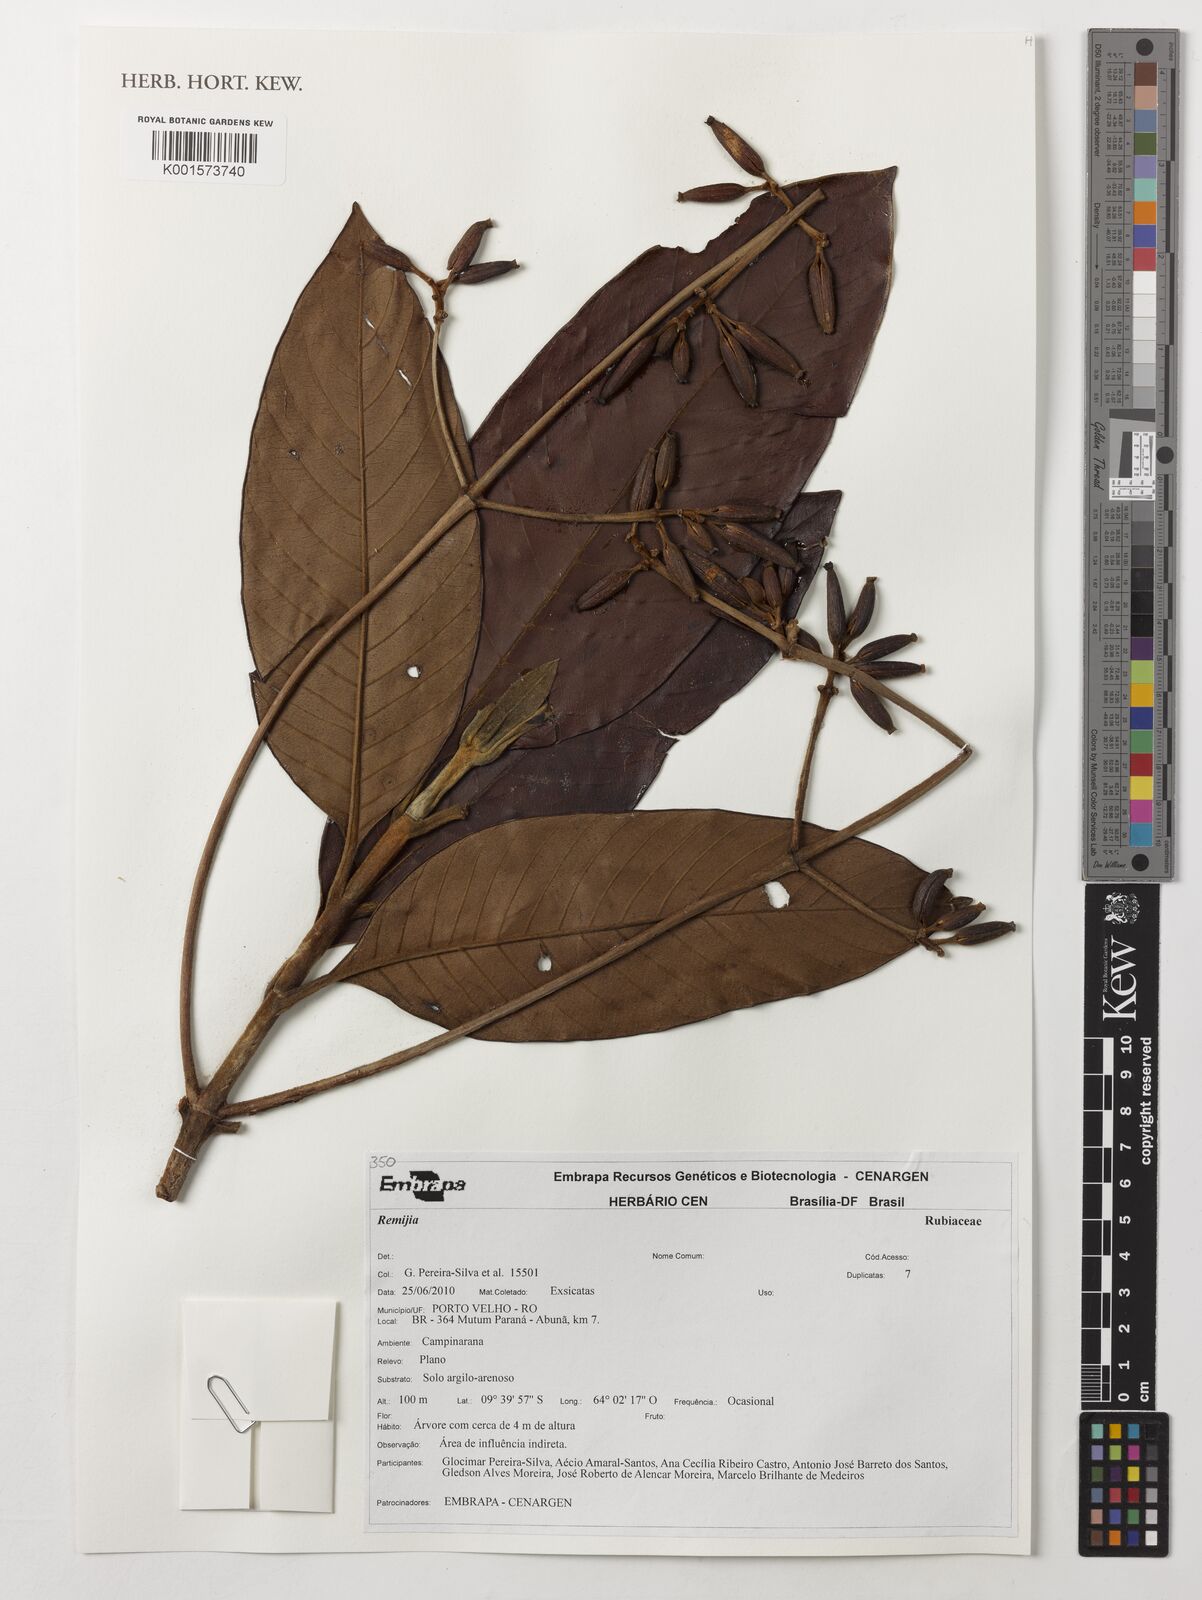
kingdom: Plantae
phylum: Tracheophyta
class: Magnoliopsida
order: Gentianales
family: Rubiaceae
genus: Remijia
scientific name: Remijia
